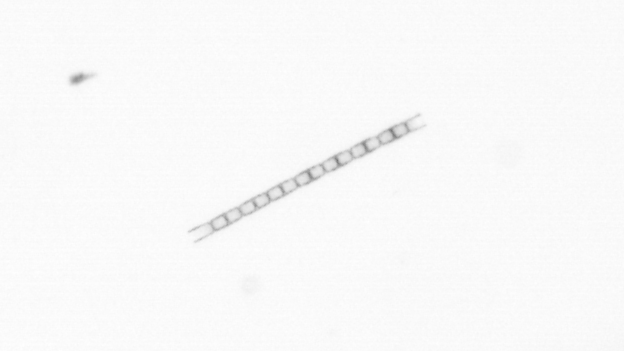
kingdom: Chromista
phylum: Ochrophyta
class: Bacillariophyceae
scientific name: Bacillariophyceae
